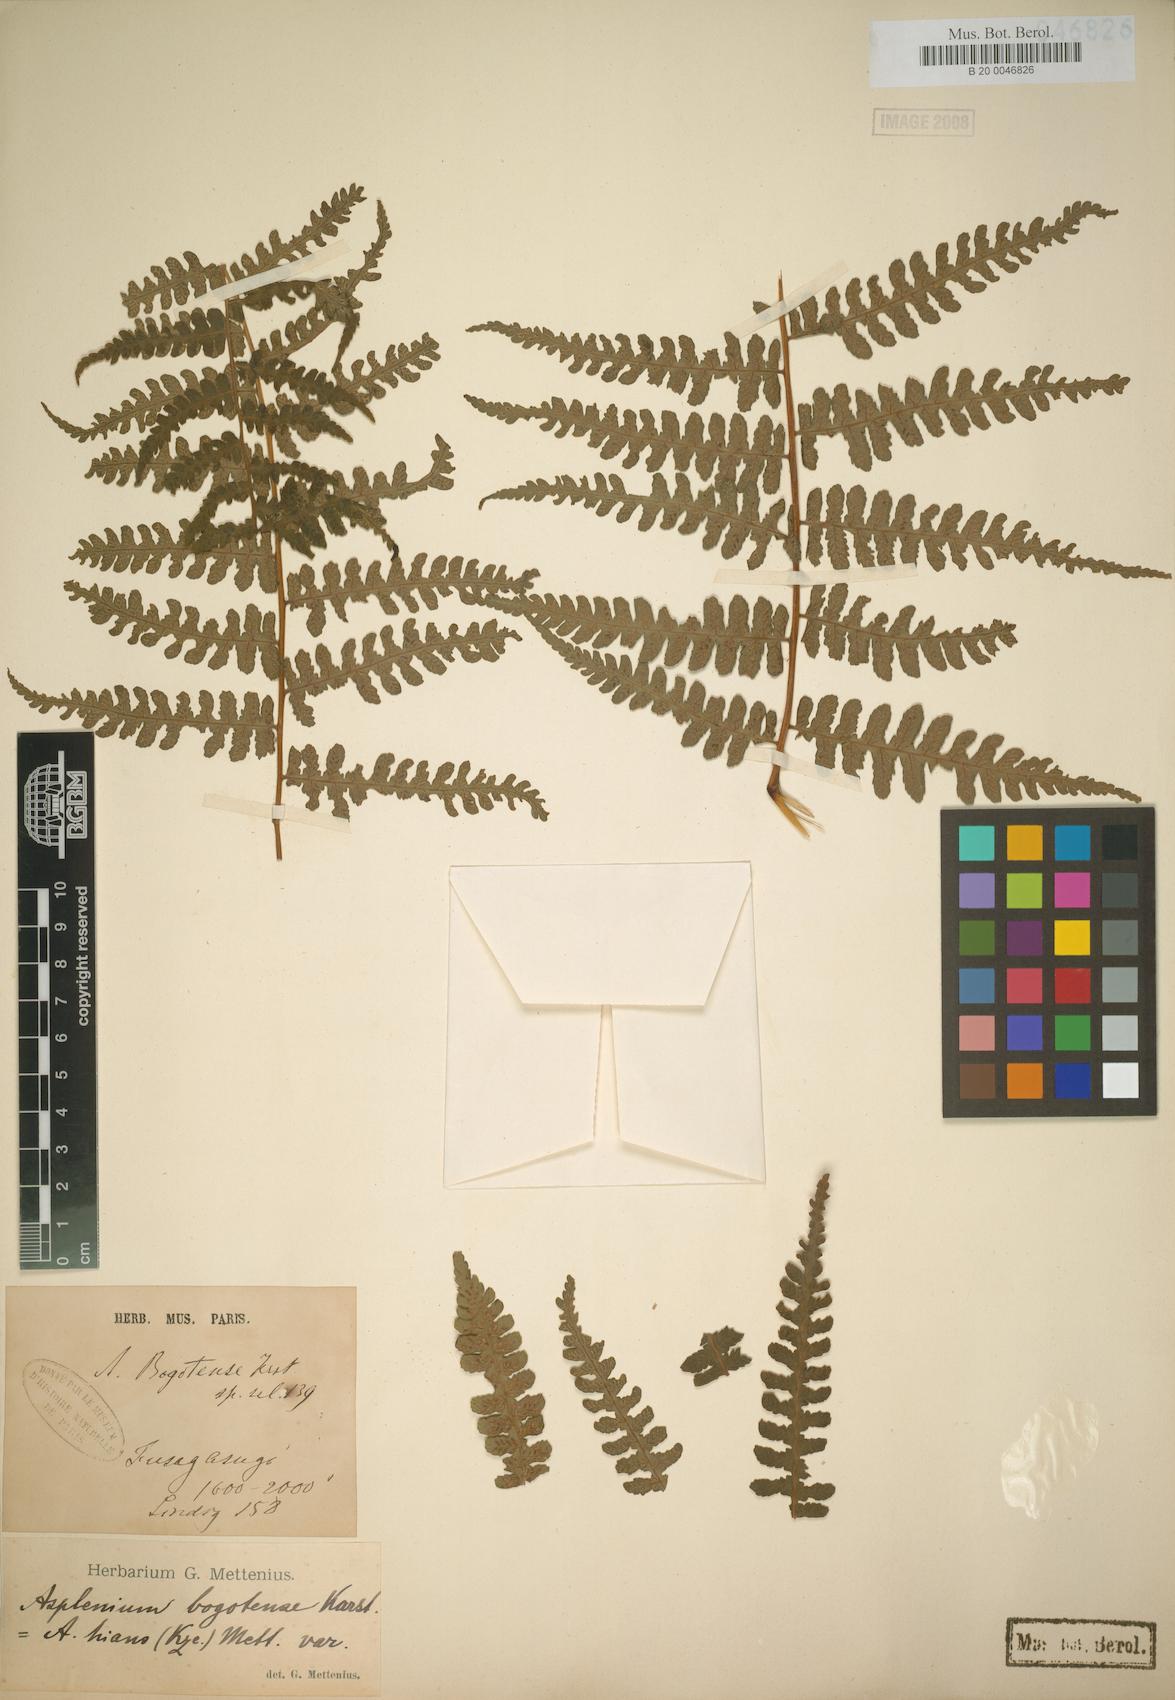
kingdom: Plantae
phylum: Tracheophyta
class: Polypodiopsida
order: Polypodiales
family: Athyriaceae
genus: Diplazium
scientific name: Diplazium bogotense
